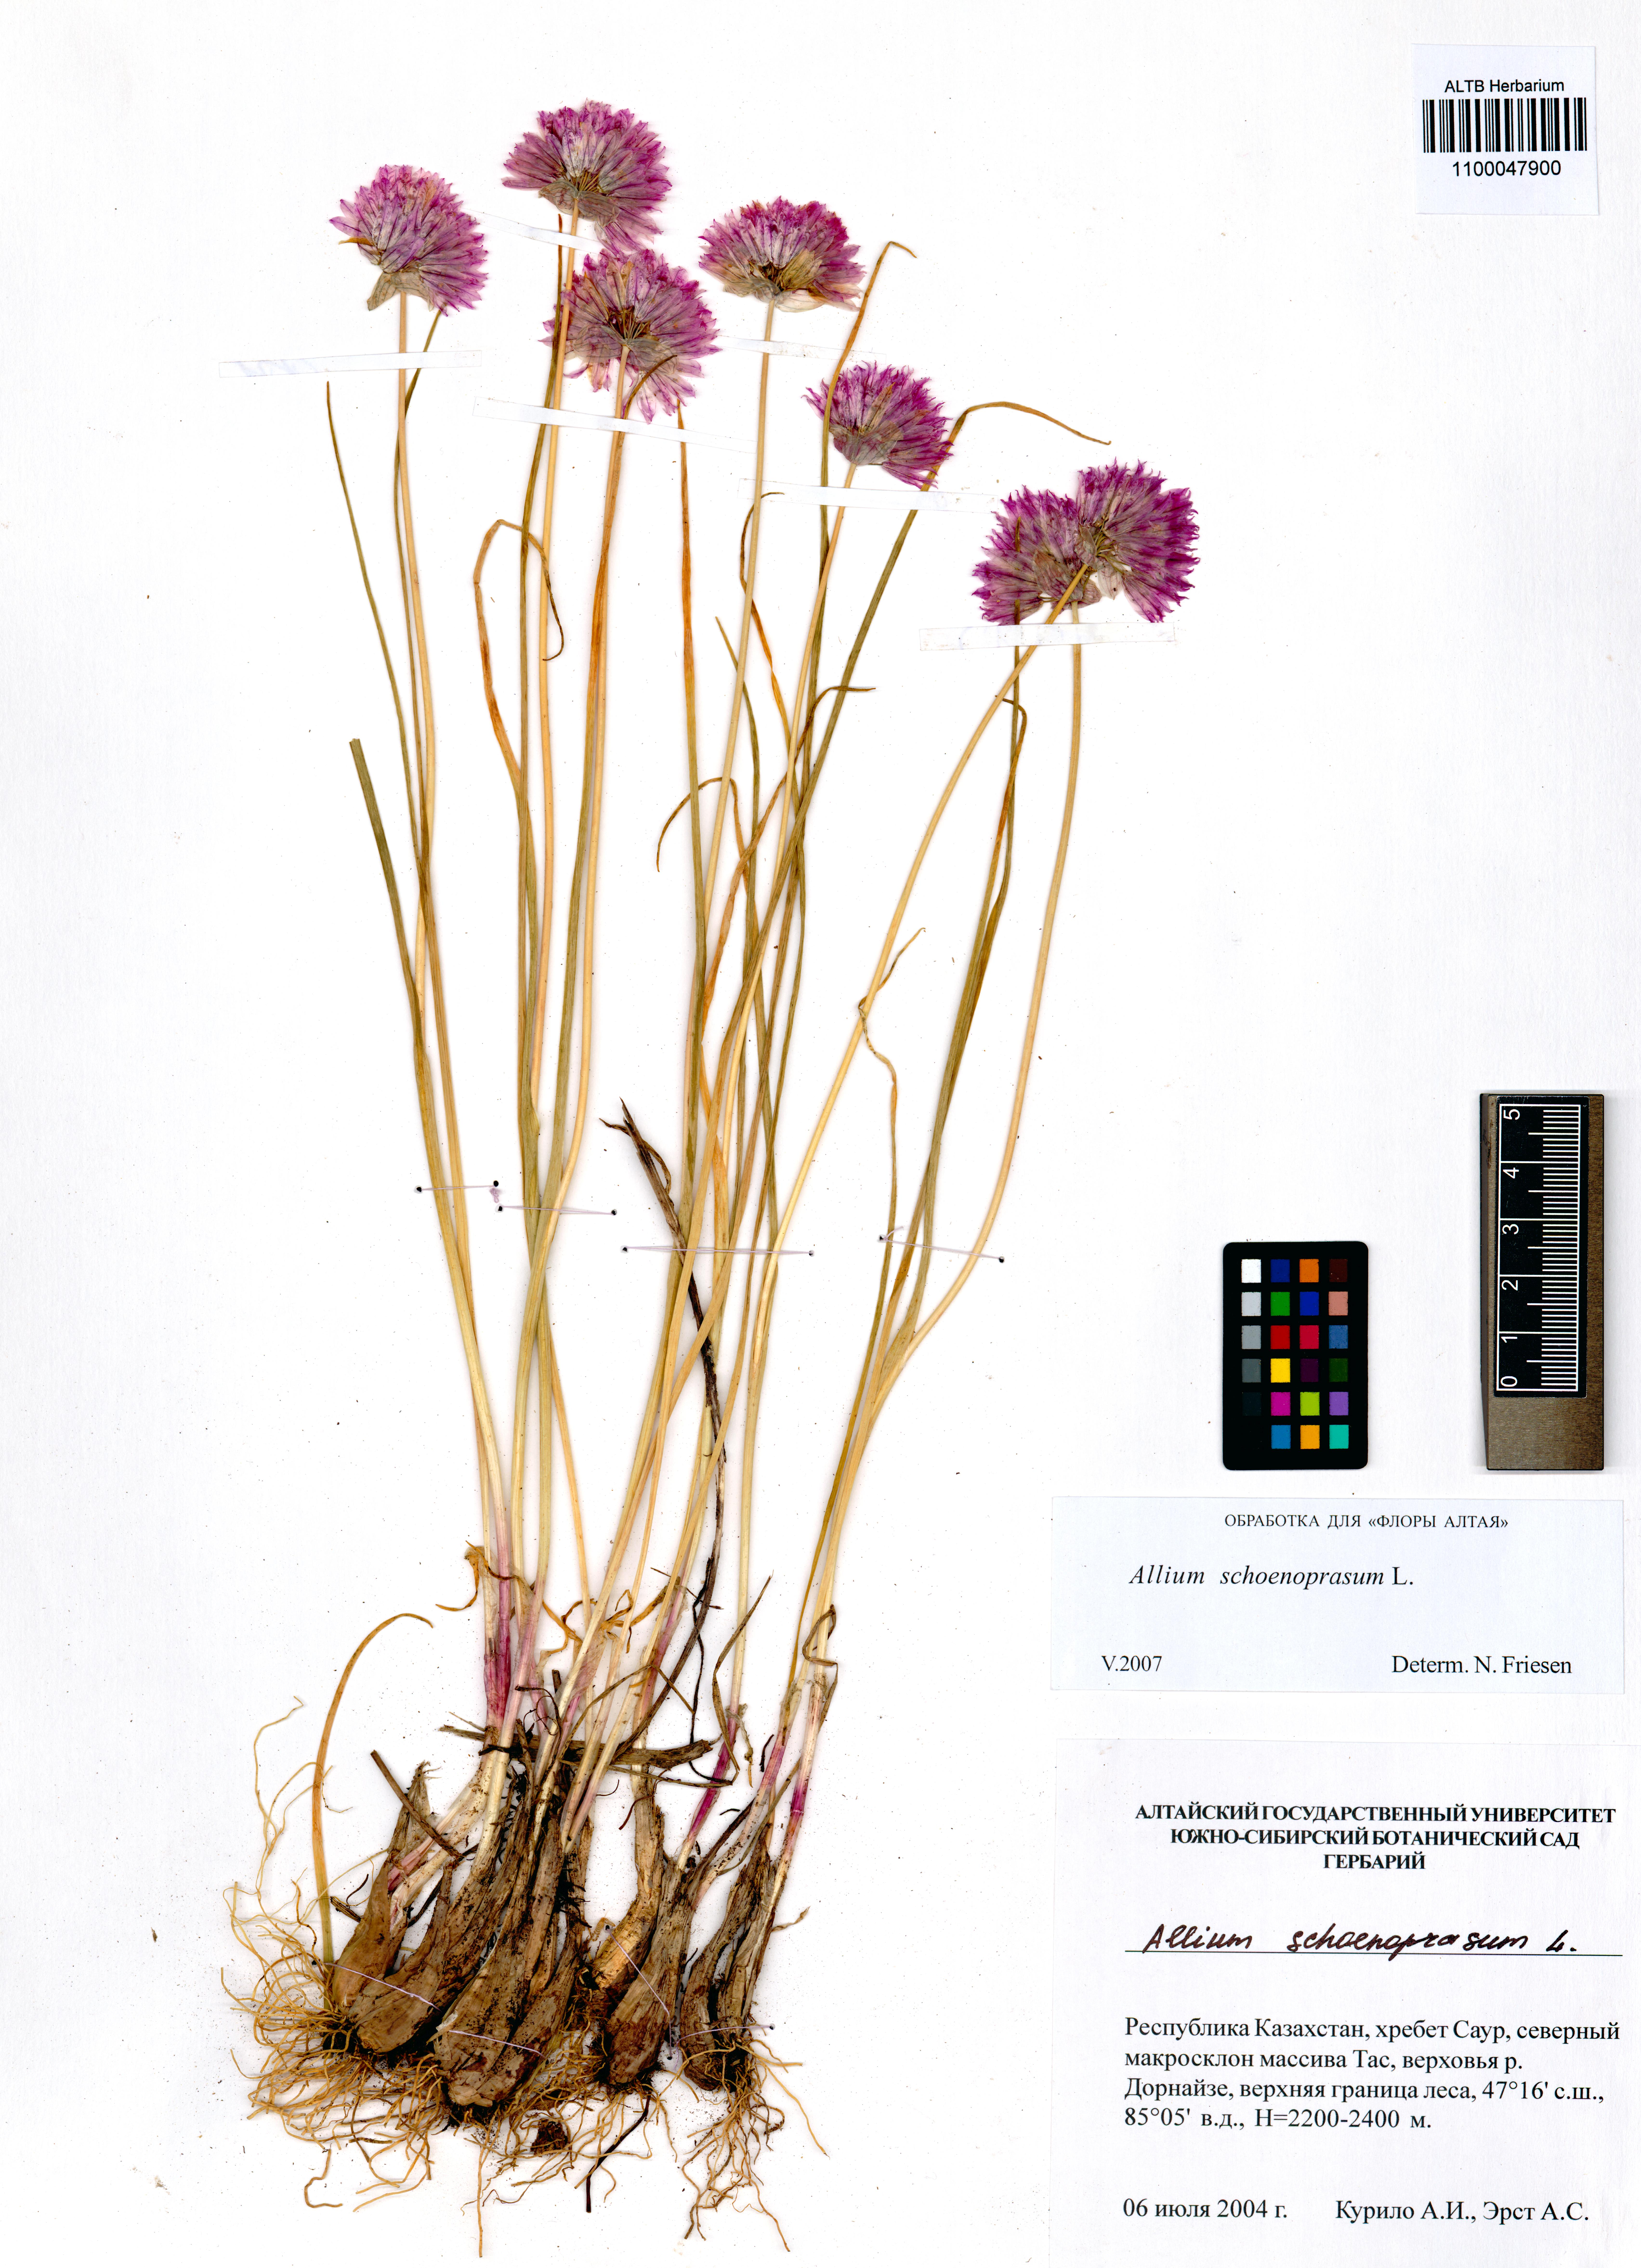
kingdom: Plantae
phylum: Tracheophyta
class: Liliopsida
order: Asparagales
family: Amaryllidaceae
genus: Allium
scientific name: Allium schoenoprasum
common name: Chives
